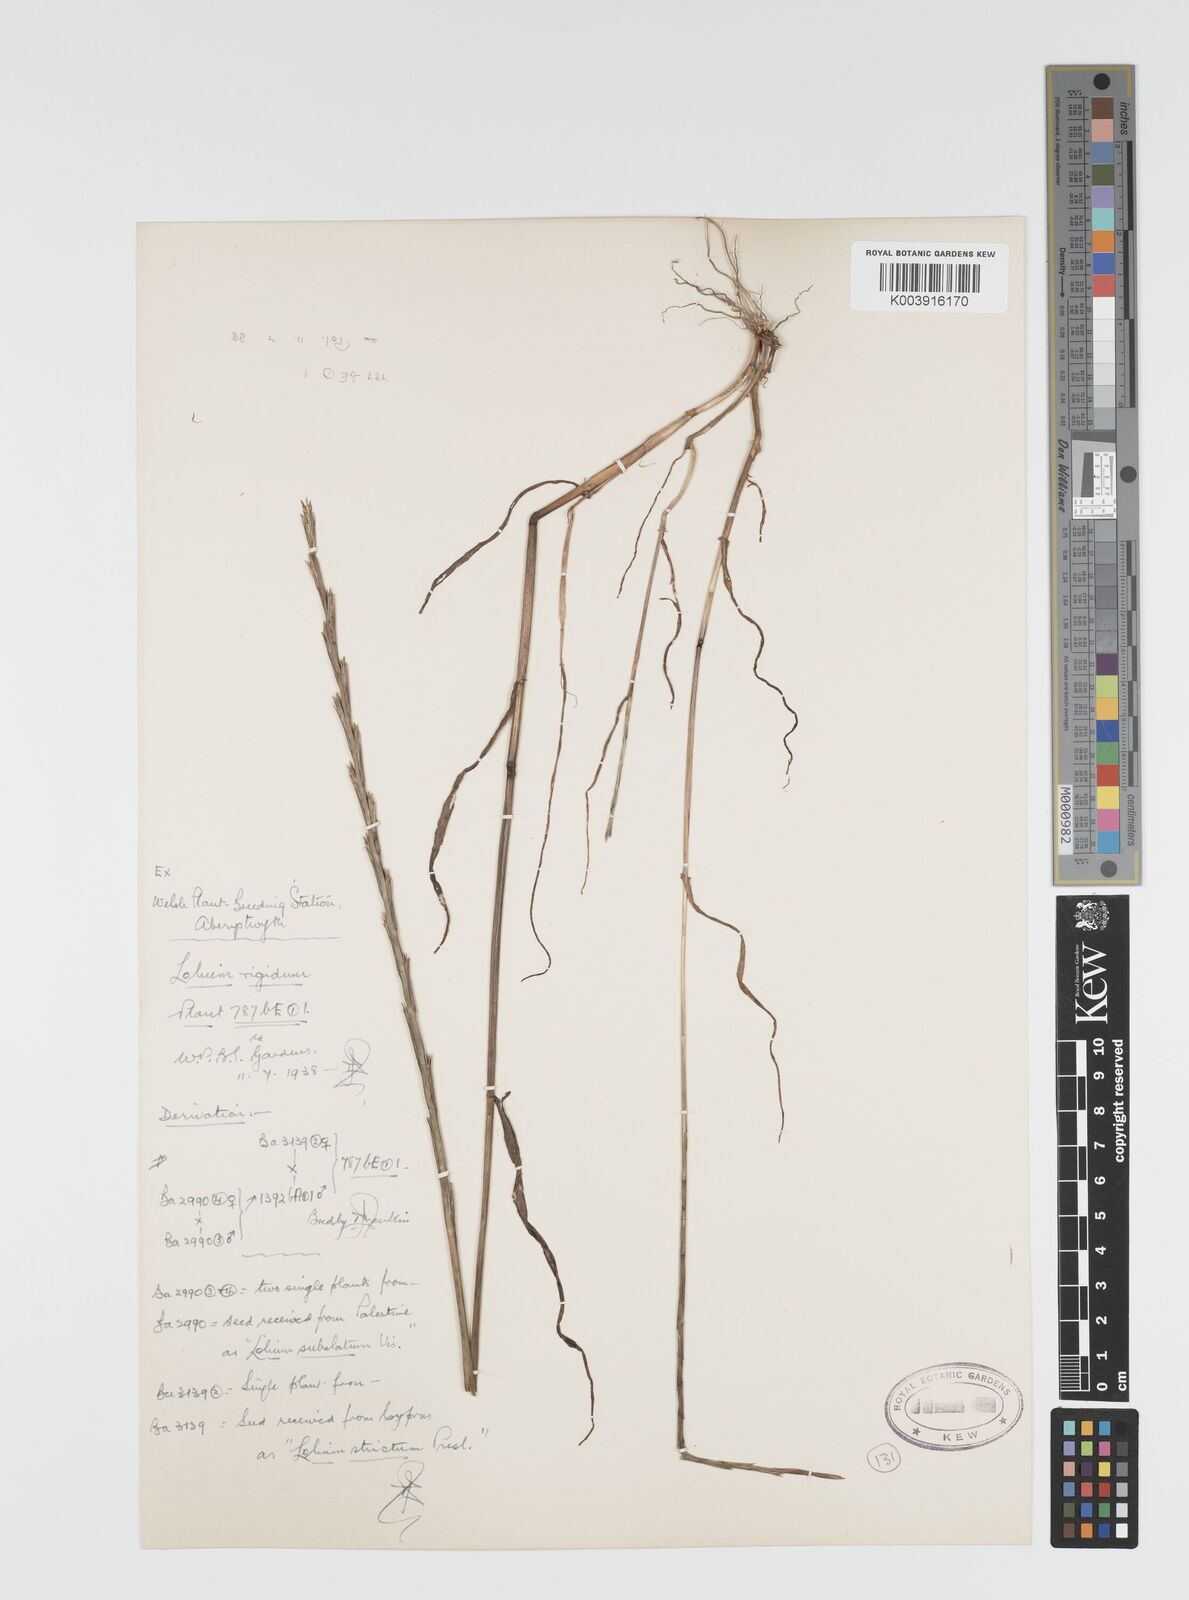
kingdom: Plantae
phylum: Tracheophyta
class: Liliopsida
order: Poales
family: Poaceae
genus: Lolium
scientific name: Lolium rigidum
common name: Wimmera ryegrass
